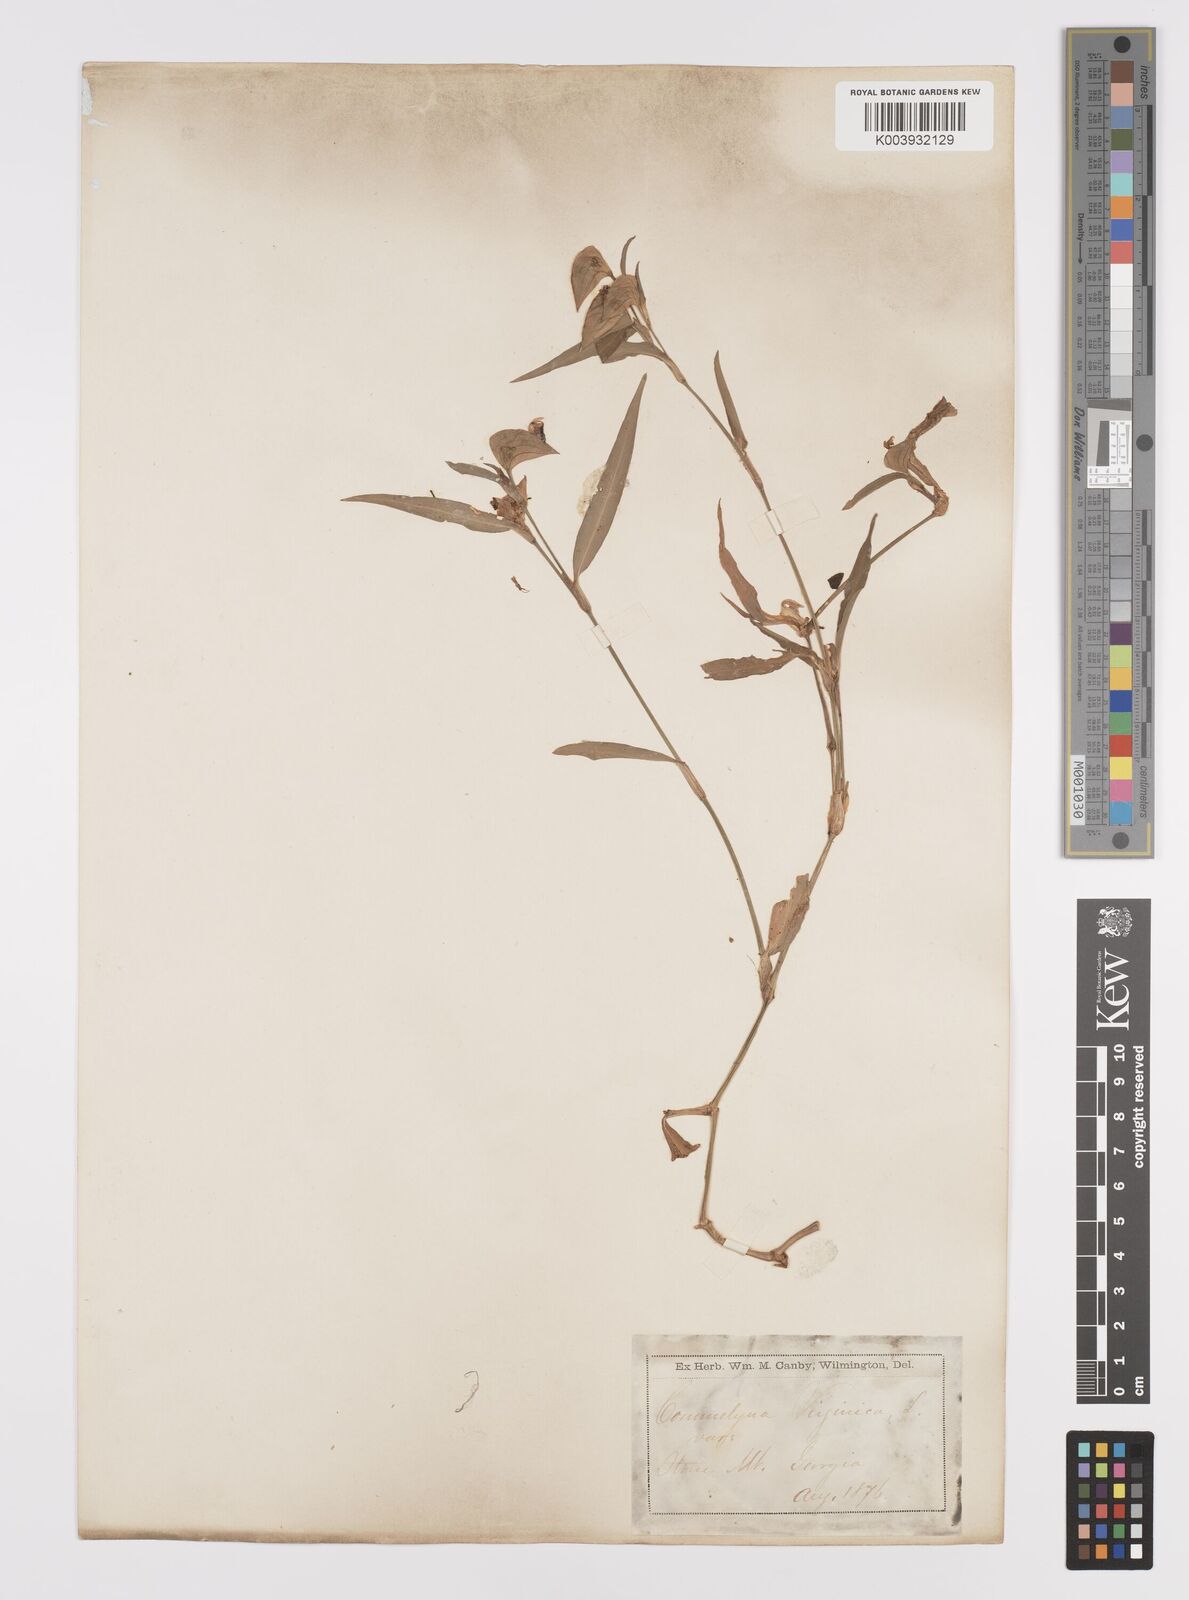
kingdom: Plantae
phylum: Tracheophyta
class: Liliopsida
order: Commelinales
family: Commelinaceae
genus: Commelina
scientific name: Commelina erecta
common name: Blousel blommetjie
